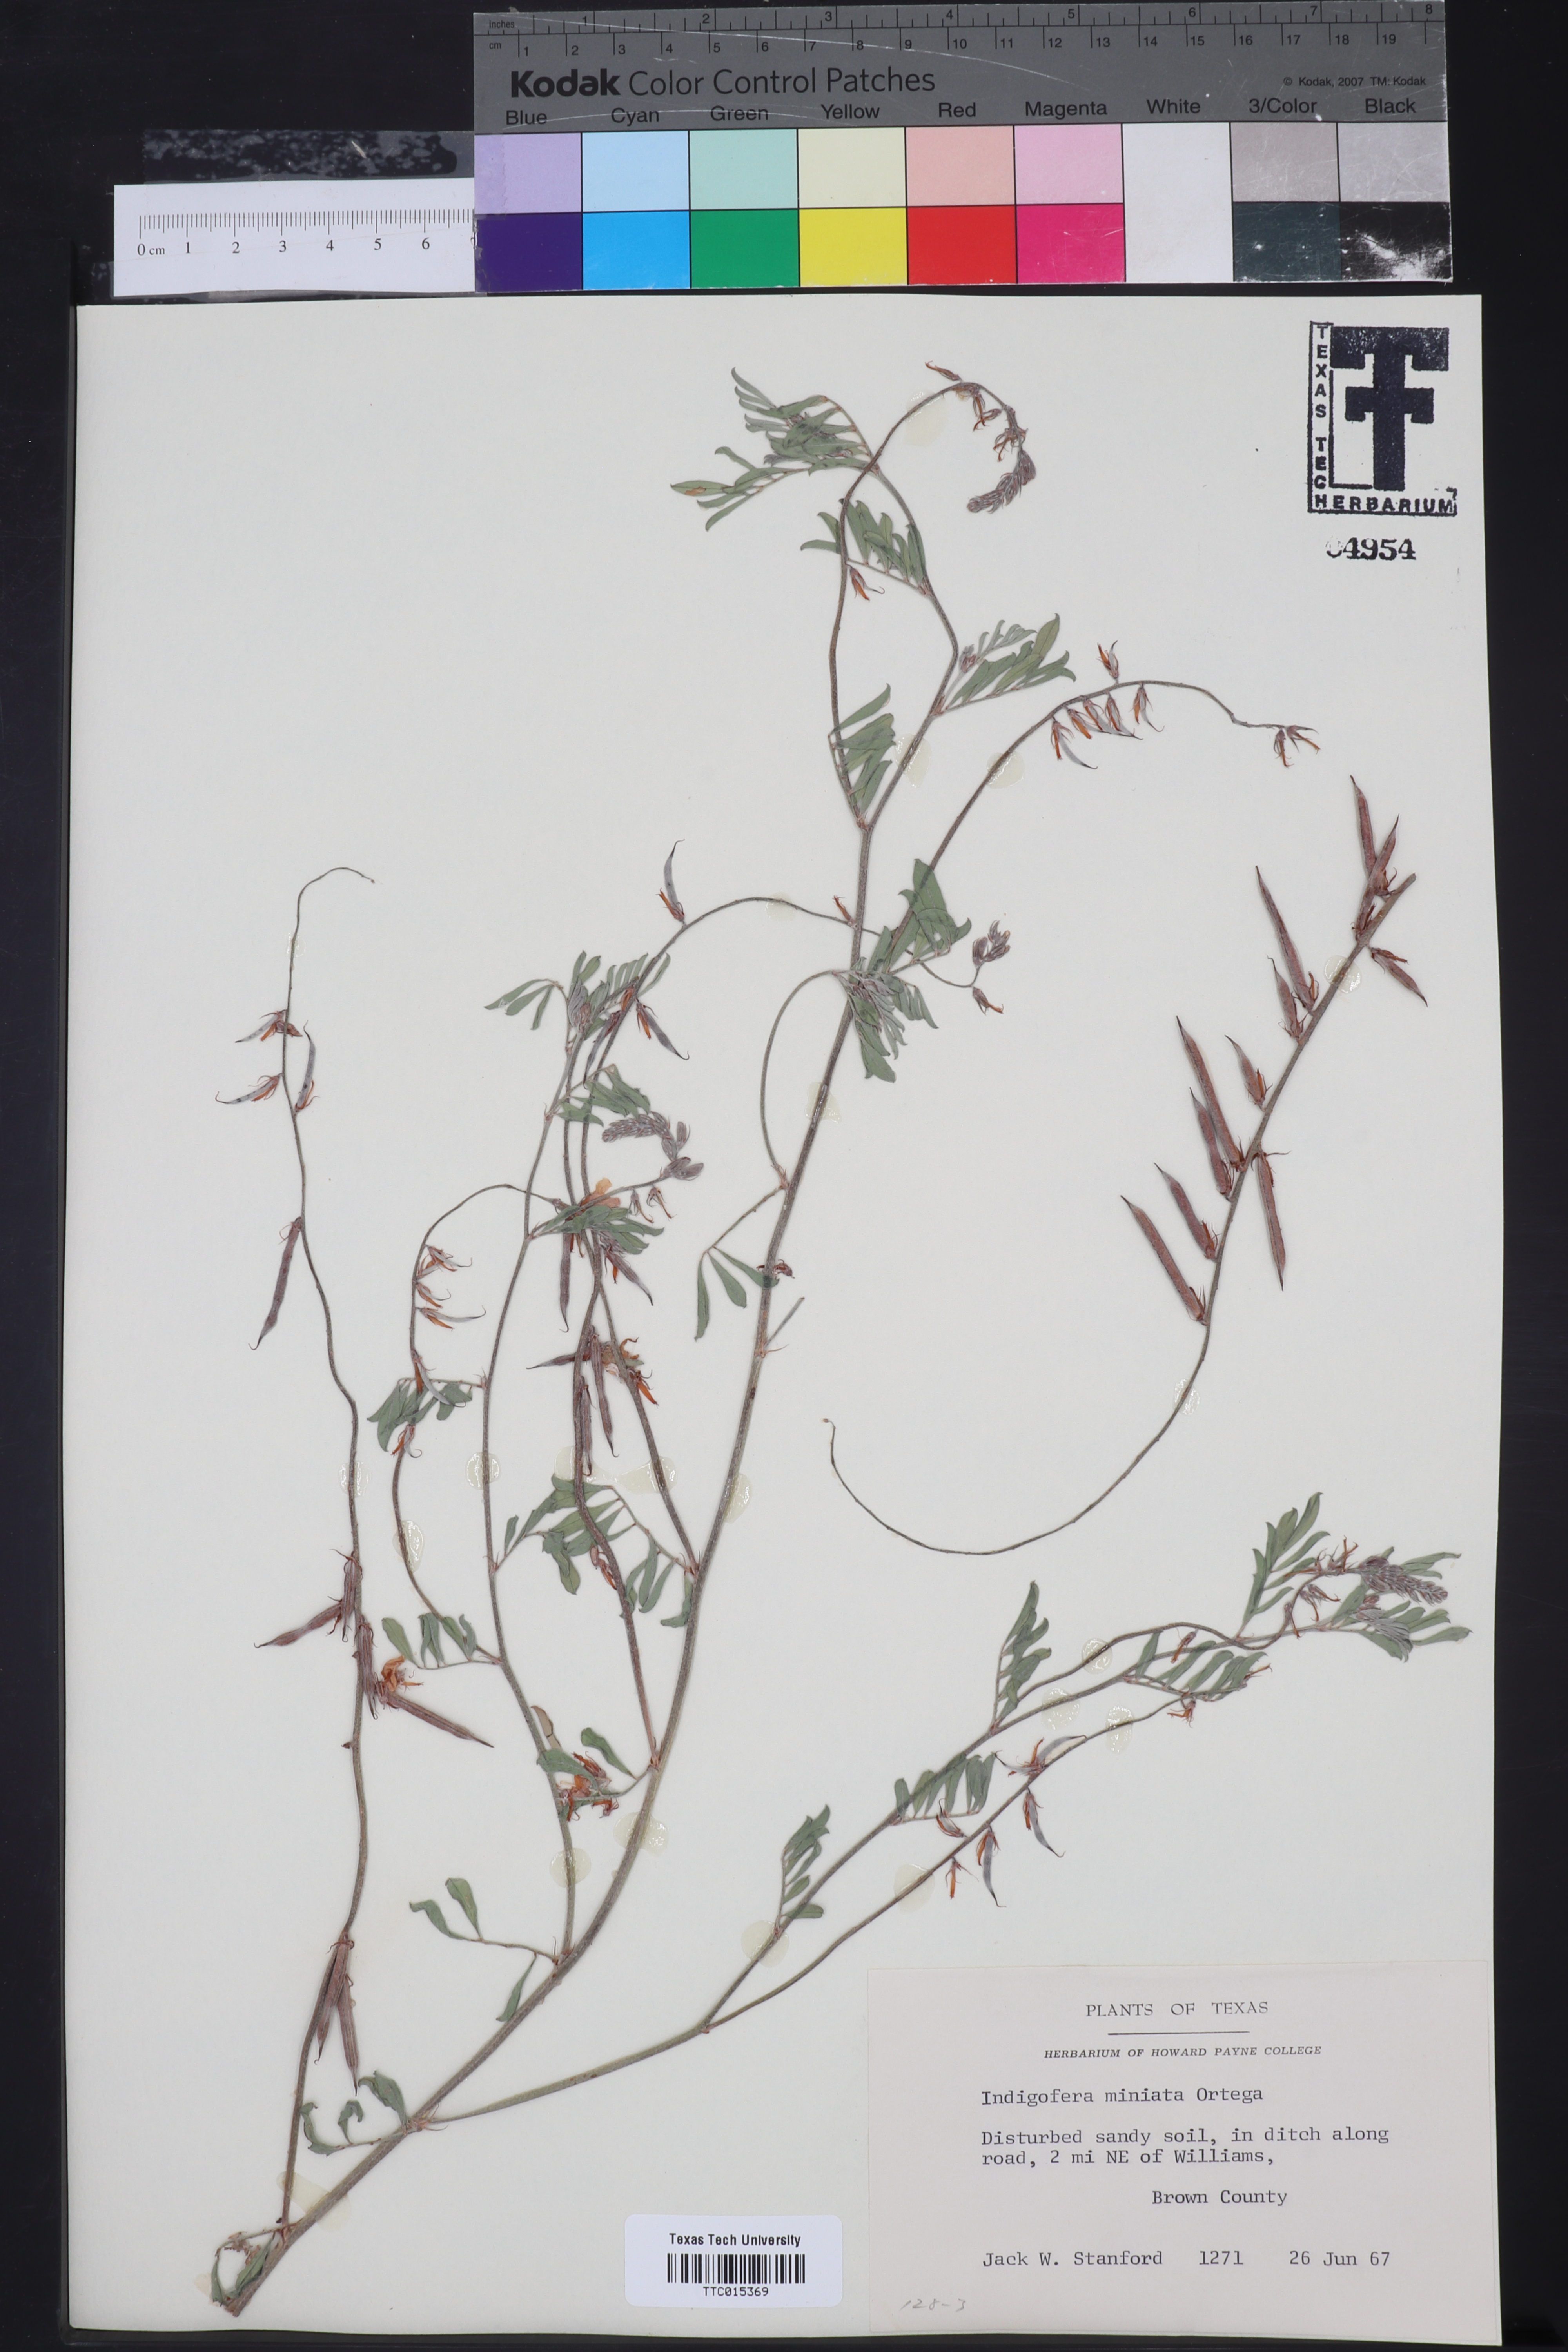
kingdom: Plantae
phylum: Tracheophyta
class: Magnoliopsida
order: Fabales
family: Fabaceae
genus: Indigofera
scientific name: Indigofera miniata
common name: Coast indigo
